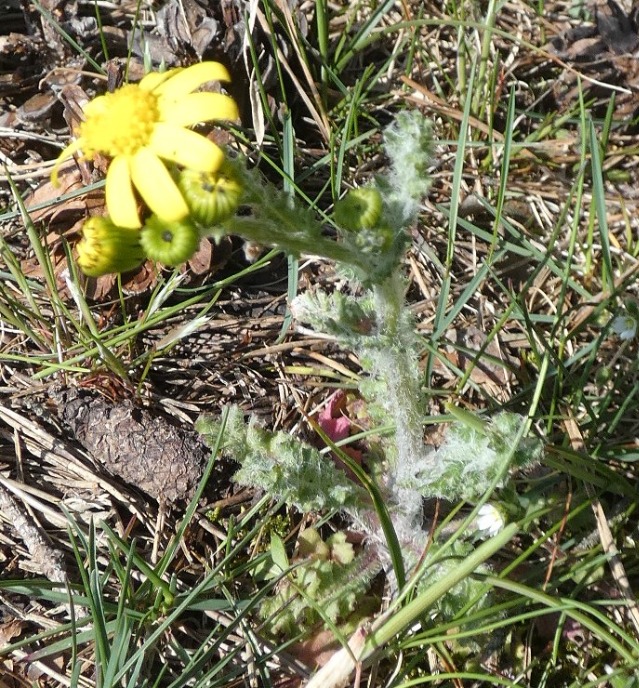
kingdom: Plantae
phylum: Tracheophyta
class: Magnoliopsida
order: Asterales
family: Asteraceae
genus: Senecio
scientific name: Senecio leucanthemifolius
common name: Vår-brandbæger
